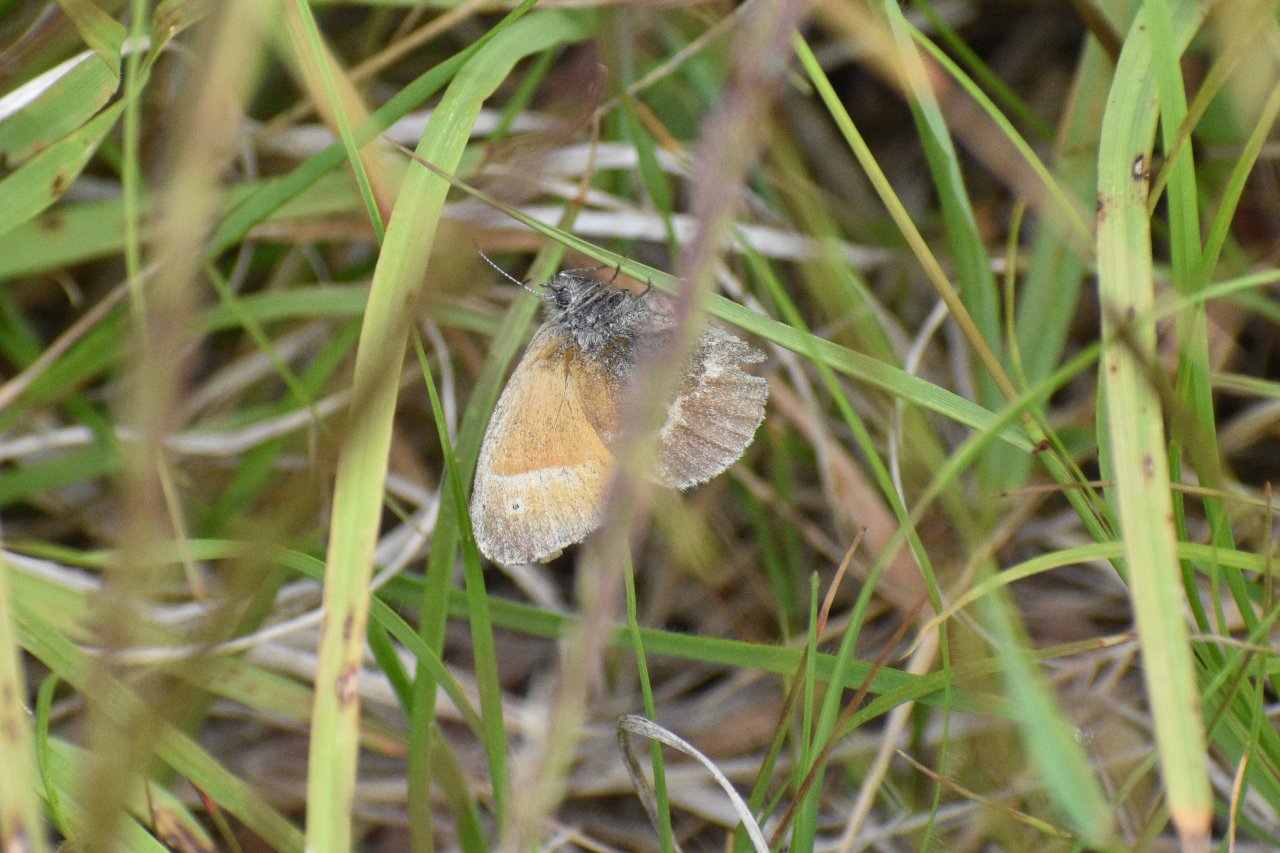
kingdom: Animalia
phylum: Arthropoda
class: Insecta
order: Lepidoptera
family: Nymphalidae
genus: Coenonympha
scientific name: Coenonympha tullia
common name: Large Heath
